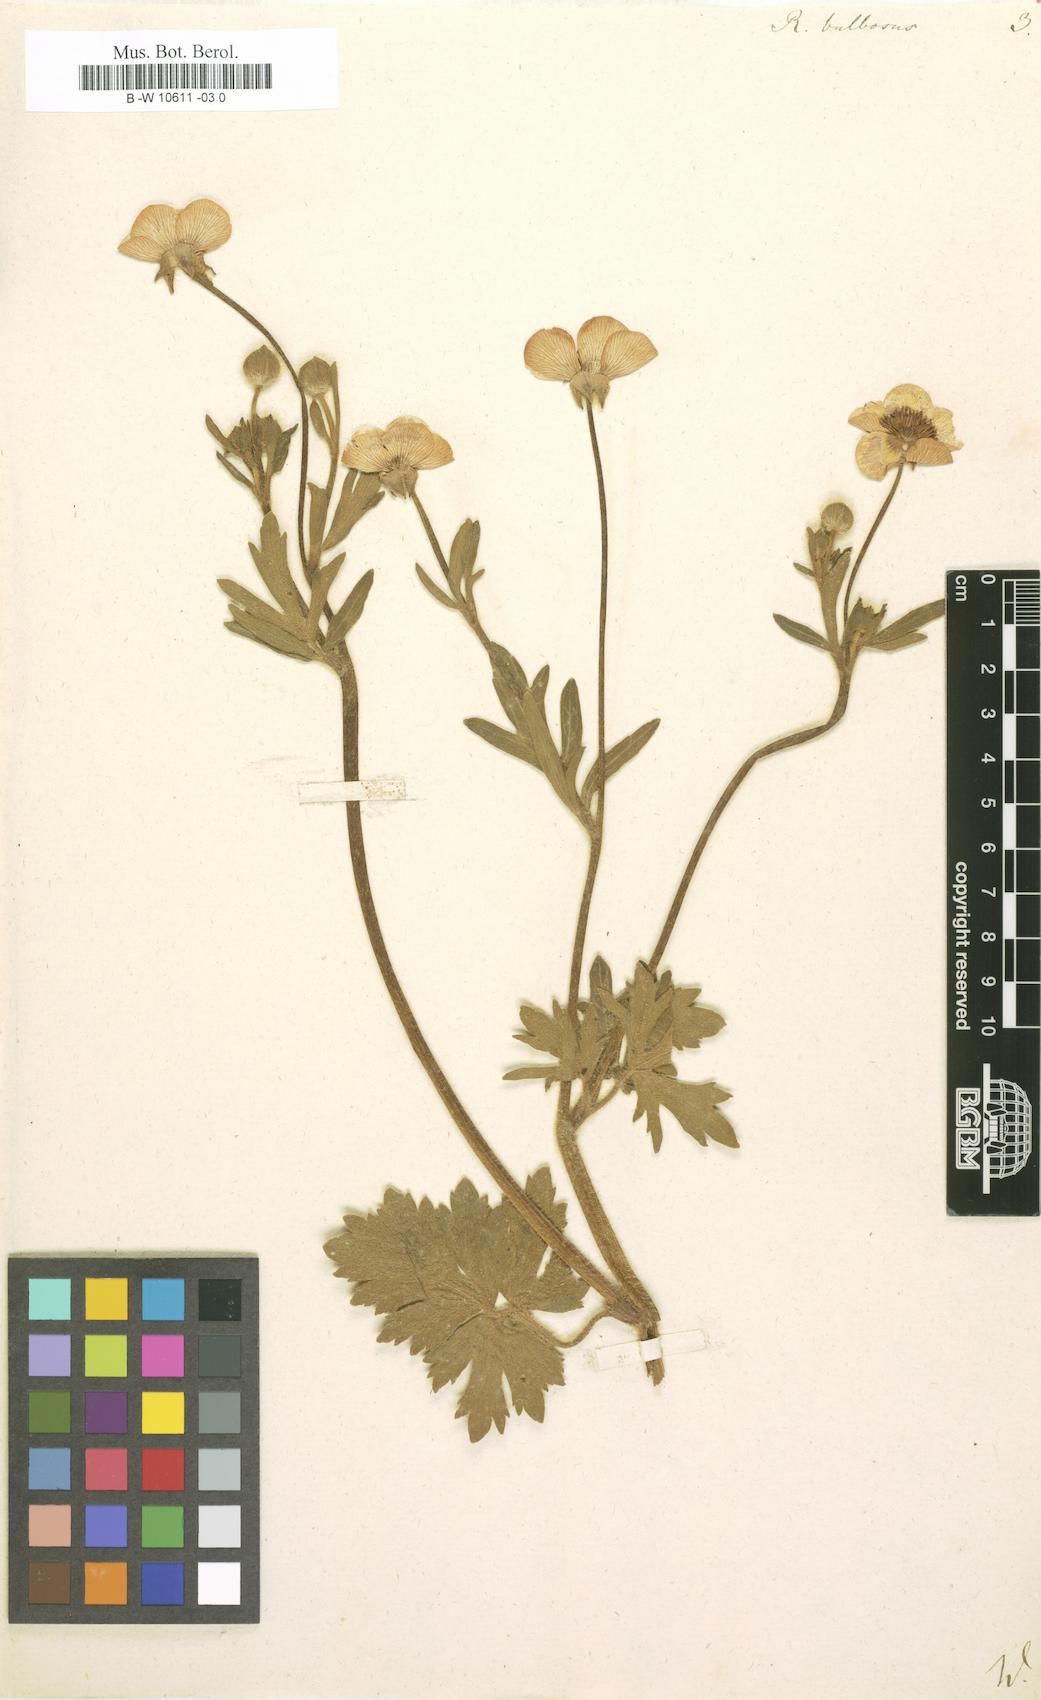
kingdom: Plantae
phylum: Tracheophyta
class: Magnoliopsida
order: Ranunculales
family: Ranunculaceae
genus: Ranunculus
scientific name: Ranunculus bulbosus
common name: Bulbous buttercup
